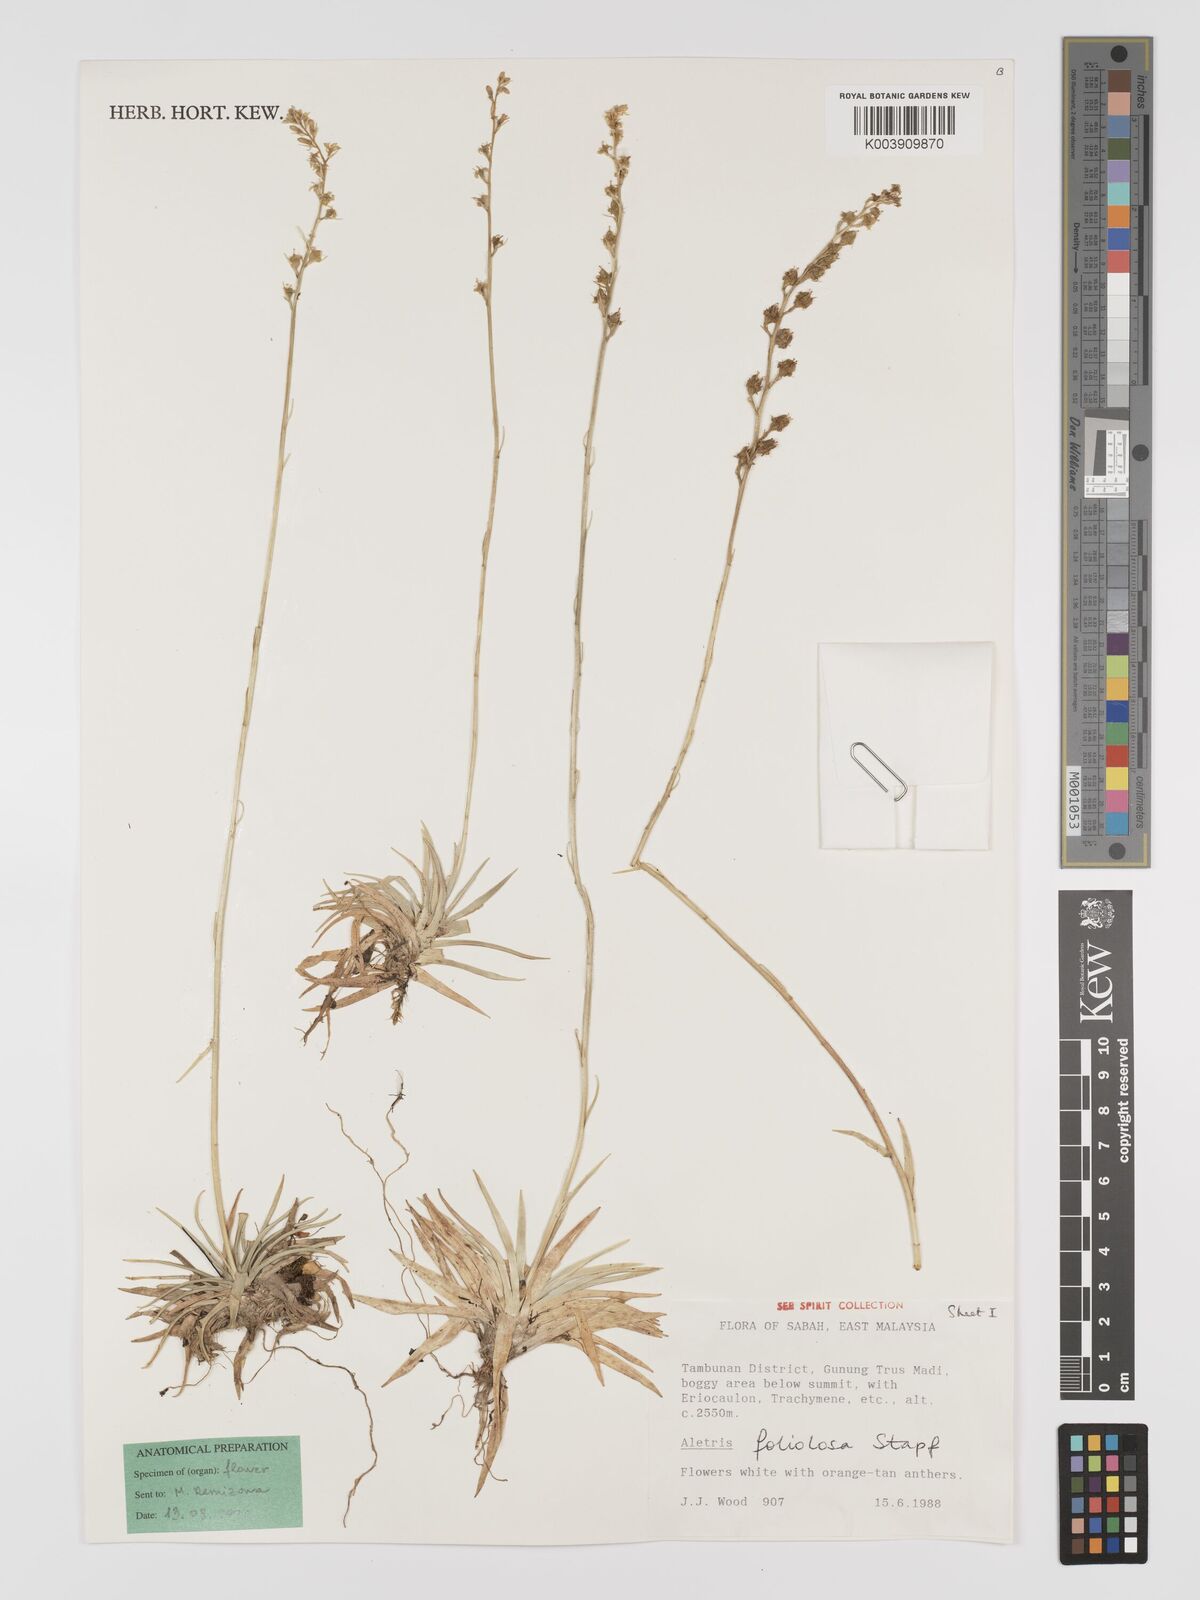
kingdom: Plantae
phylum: Tracheophyta
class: Liliopsida
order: Dioscoreales
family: Nartheciaceae
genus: Aletris
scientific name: Aletris foliolosa
